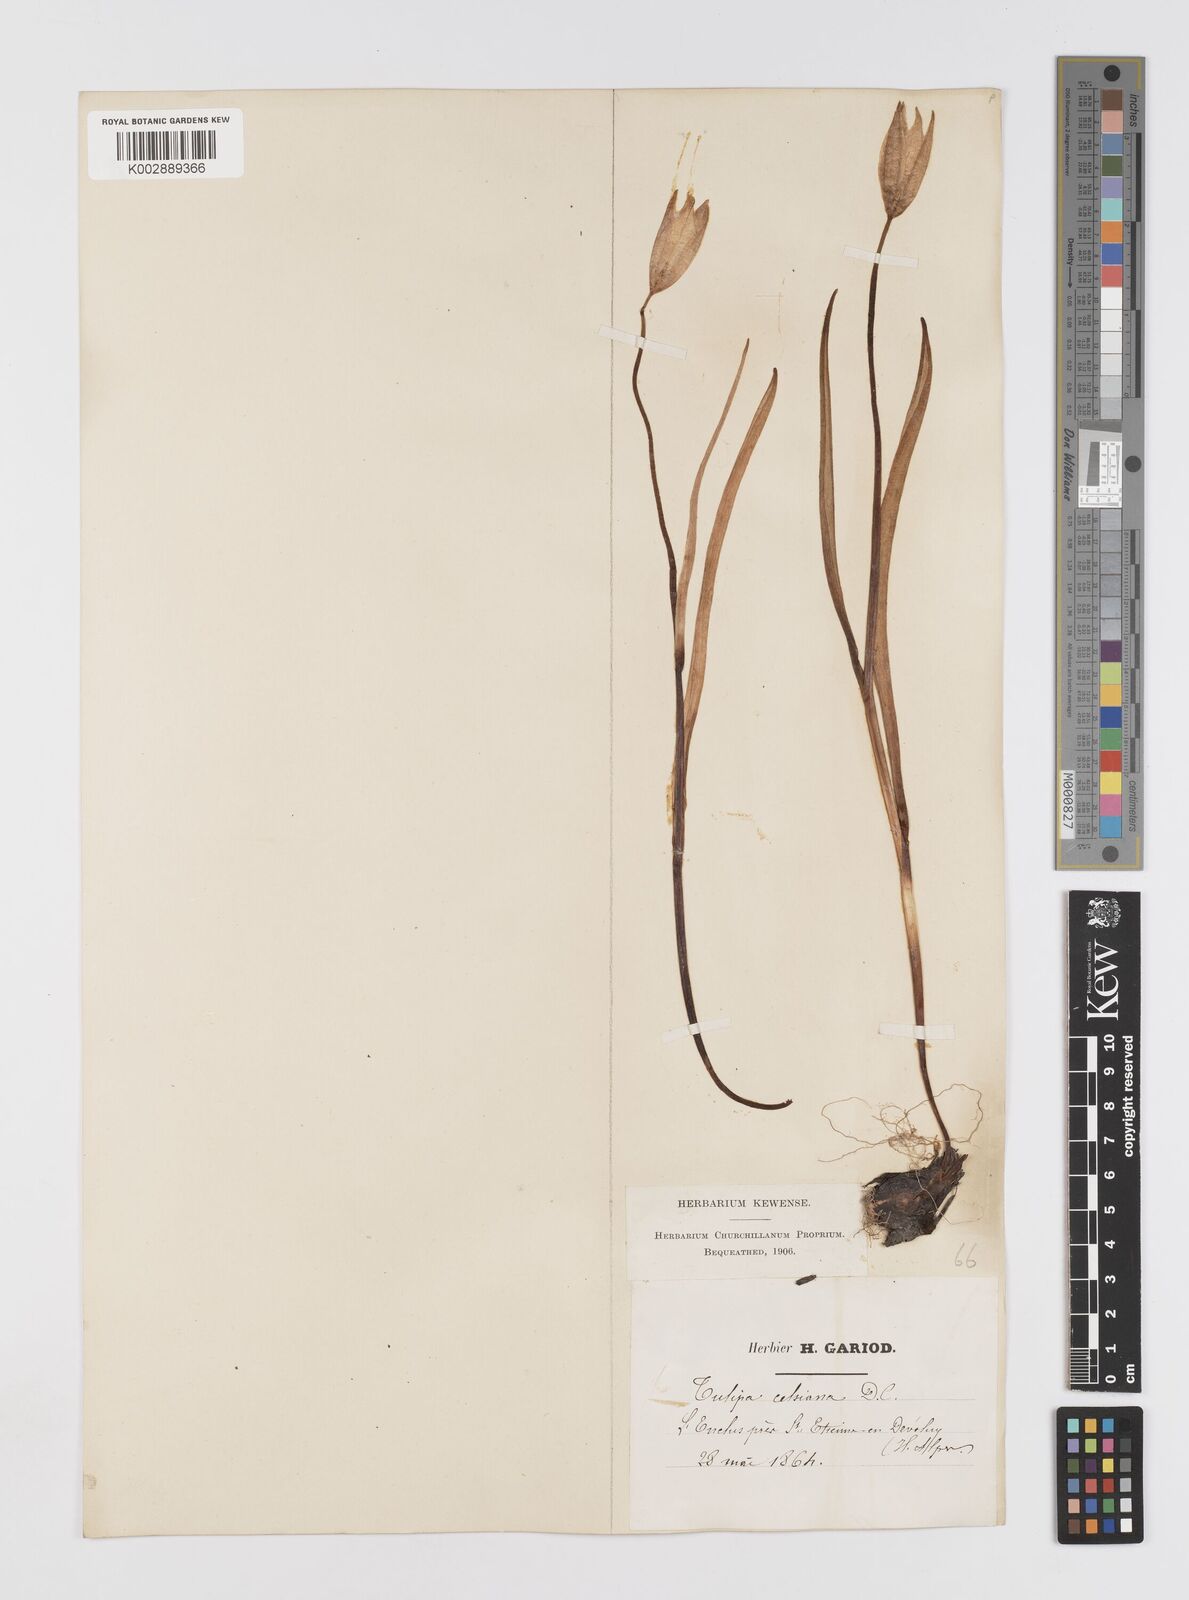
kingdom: Plantae
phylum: Tracheophyta
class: Liliopsida
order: Liliales
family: Liliaceae
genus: Tulipa
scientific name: Tulipa sylvestris
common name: Wild tulip
